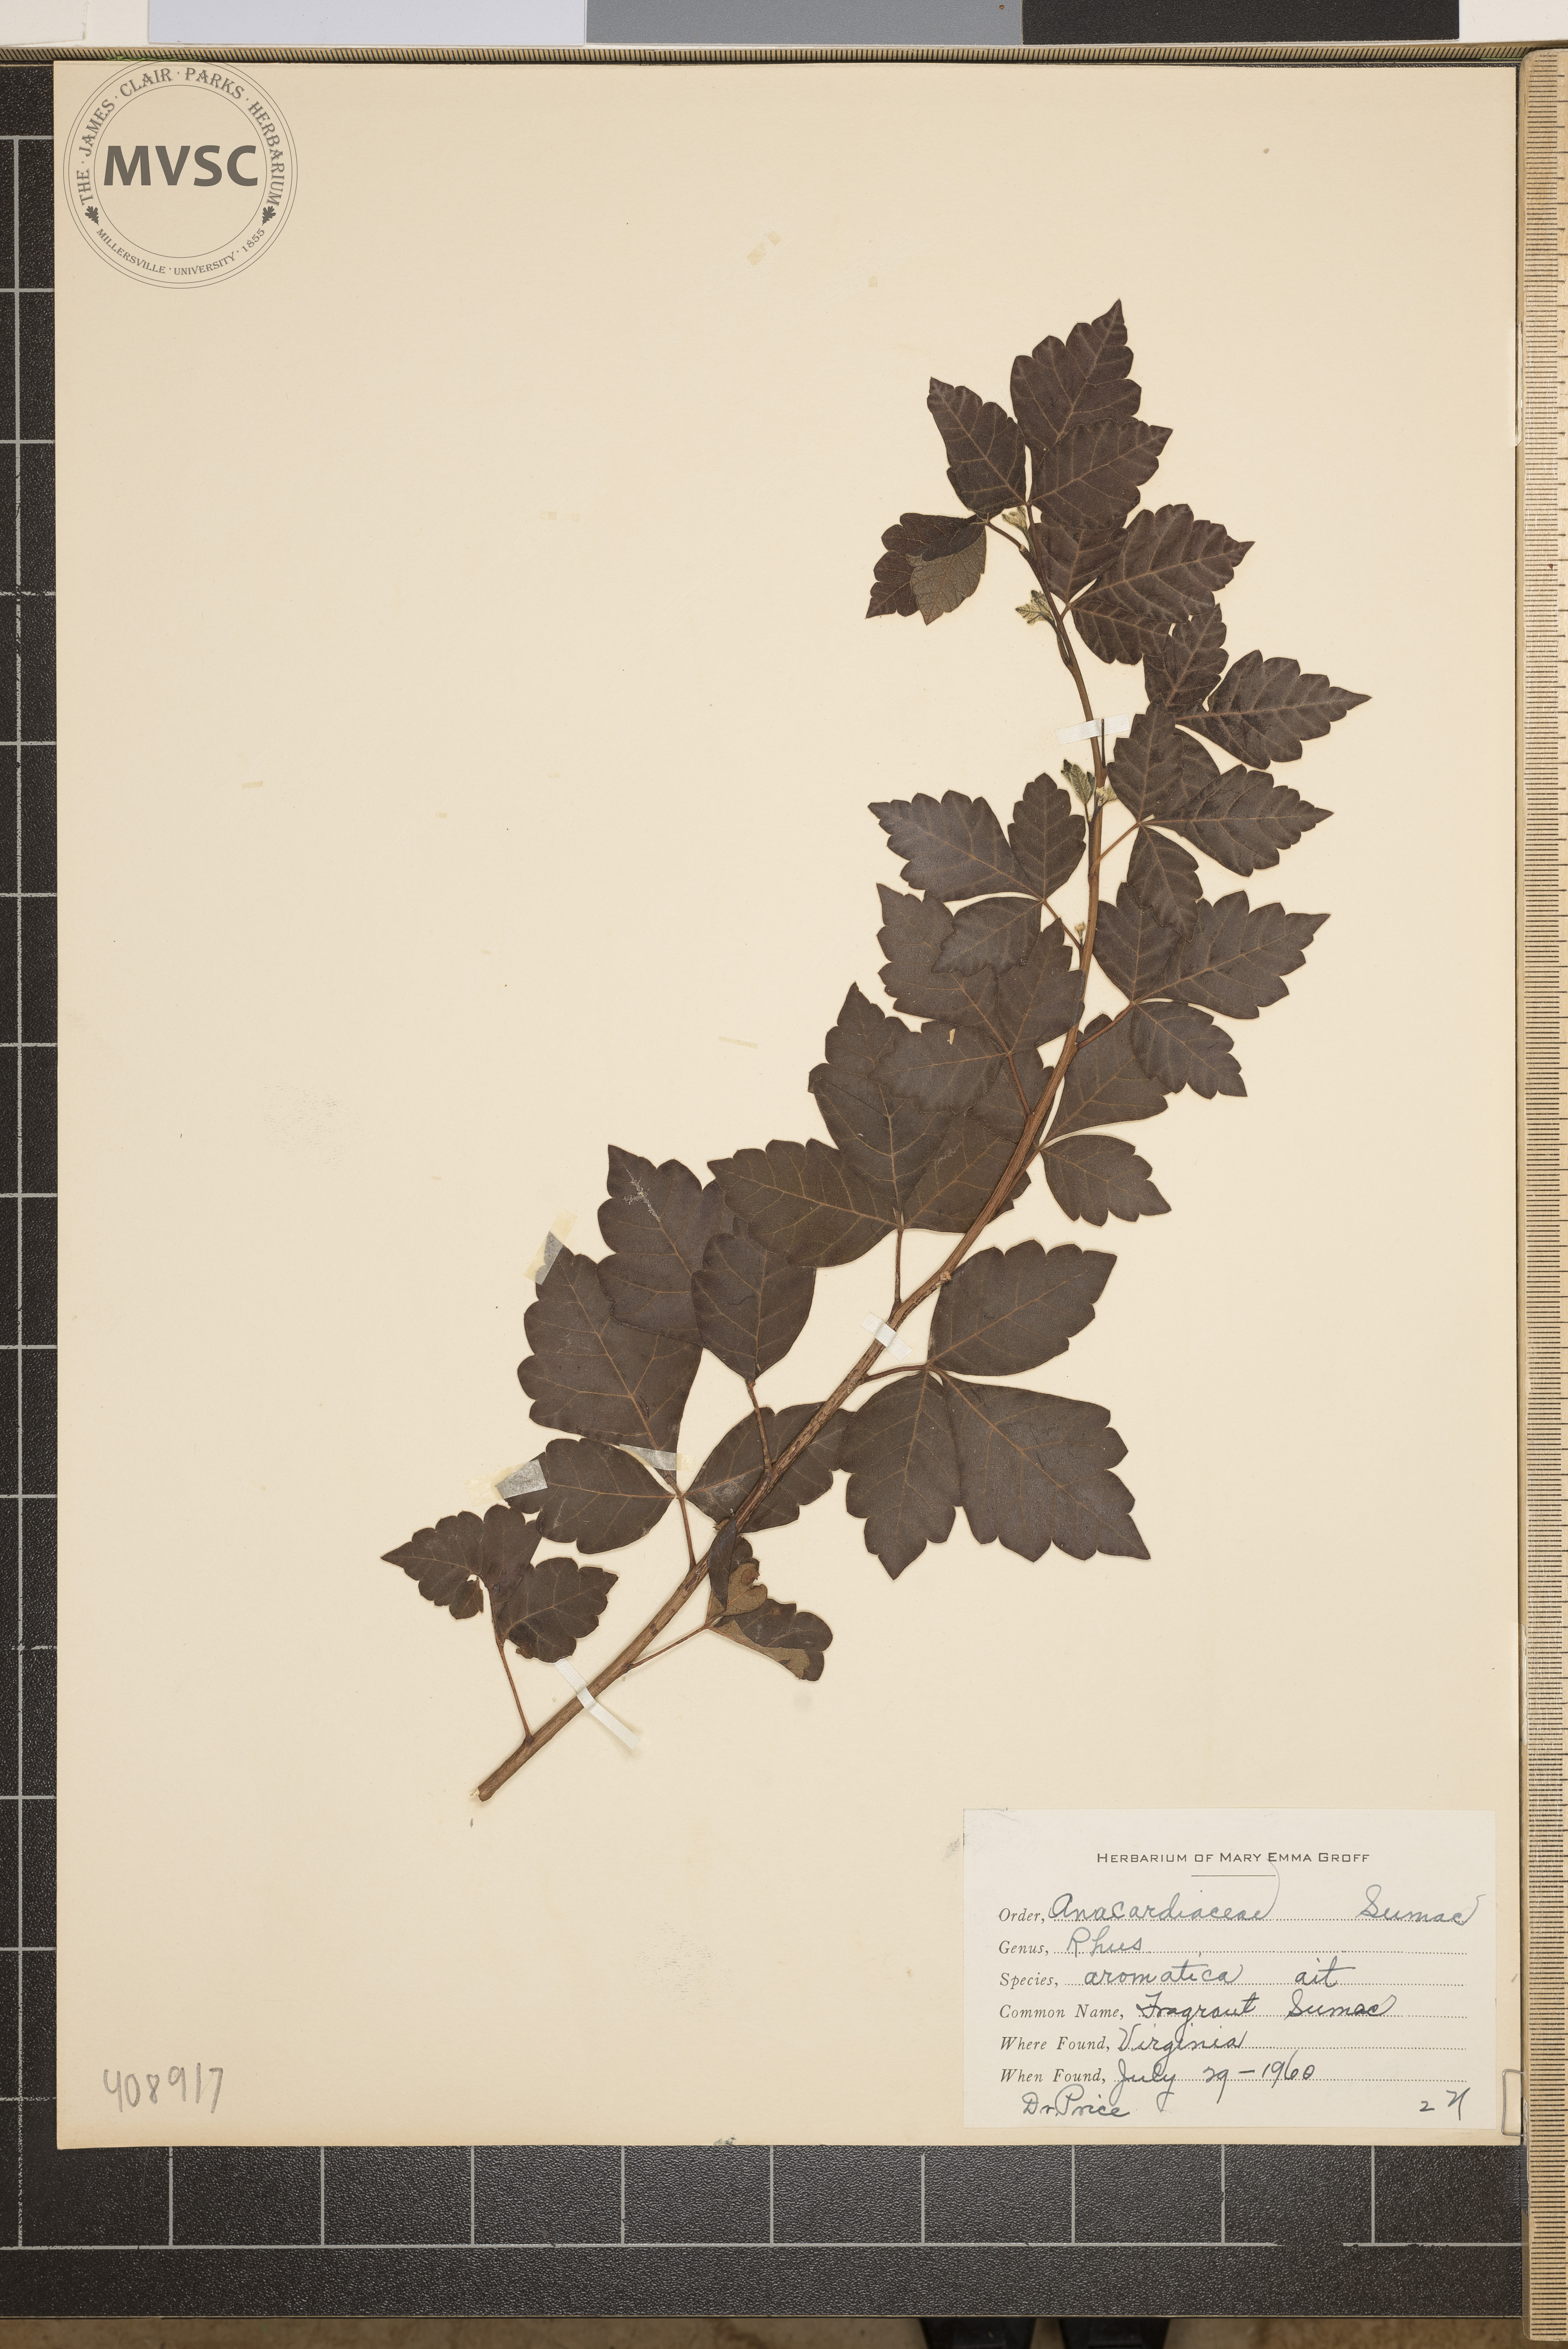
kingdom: Plantae
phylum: Tracheophyta
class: Magnoliopsida
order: Sapindales
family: Anacardiaceae
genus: Rhus
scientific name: Rhus aromatica
